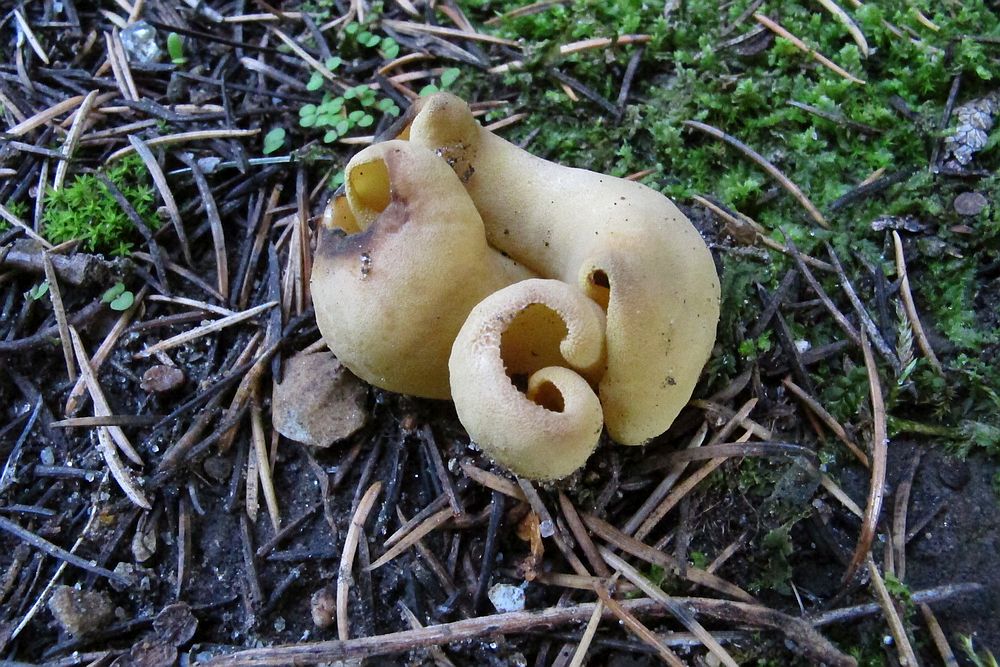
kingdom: Fungi
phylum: Ascomycota
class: Pezizomycetes
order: Pezizales
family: Otideaceae
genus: Otidea
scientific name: Otidea cantharella
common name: citrongul ørebæger
